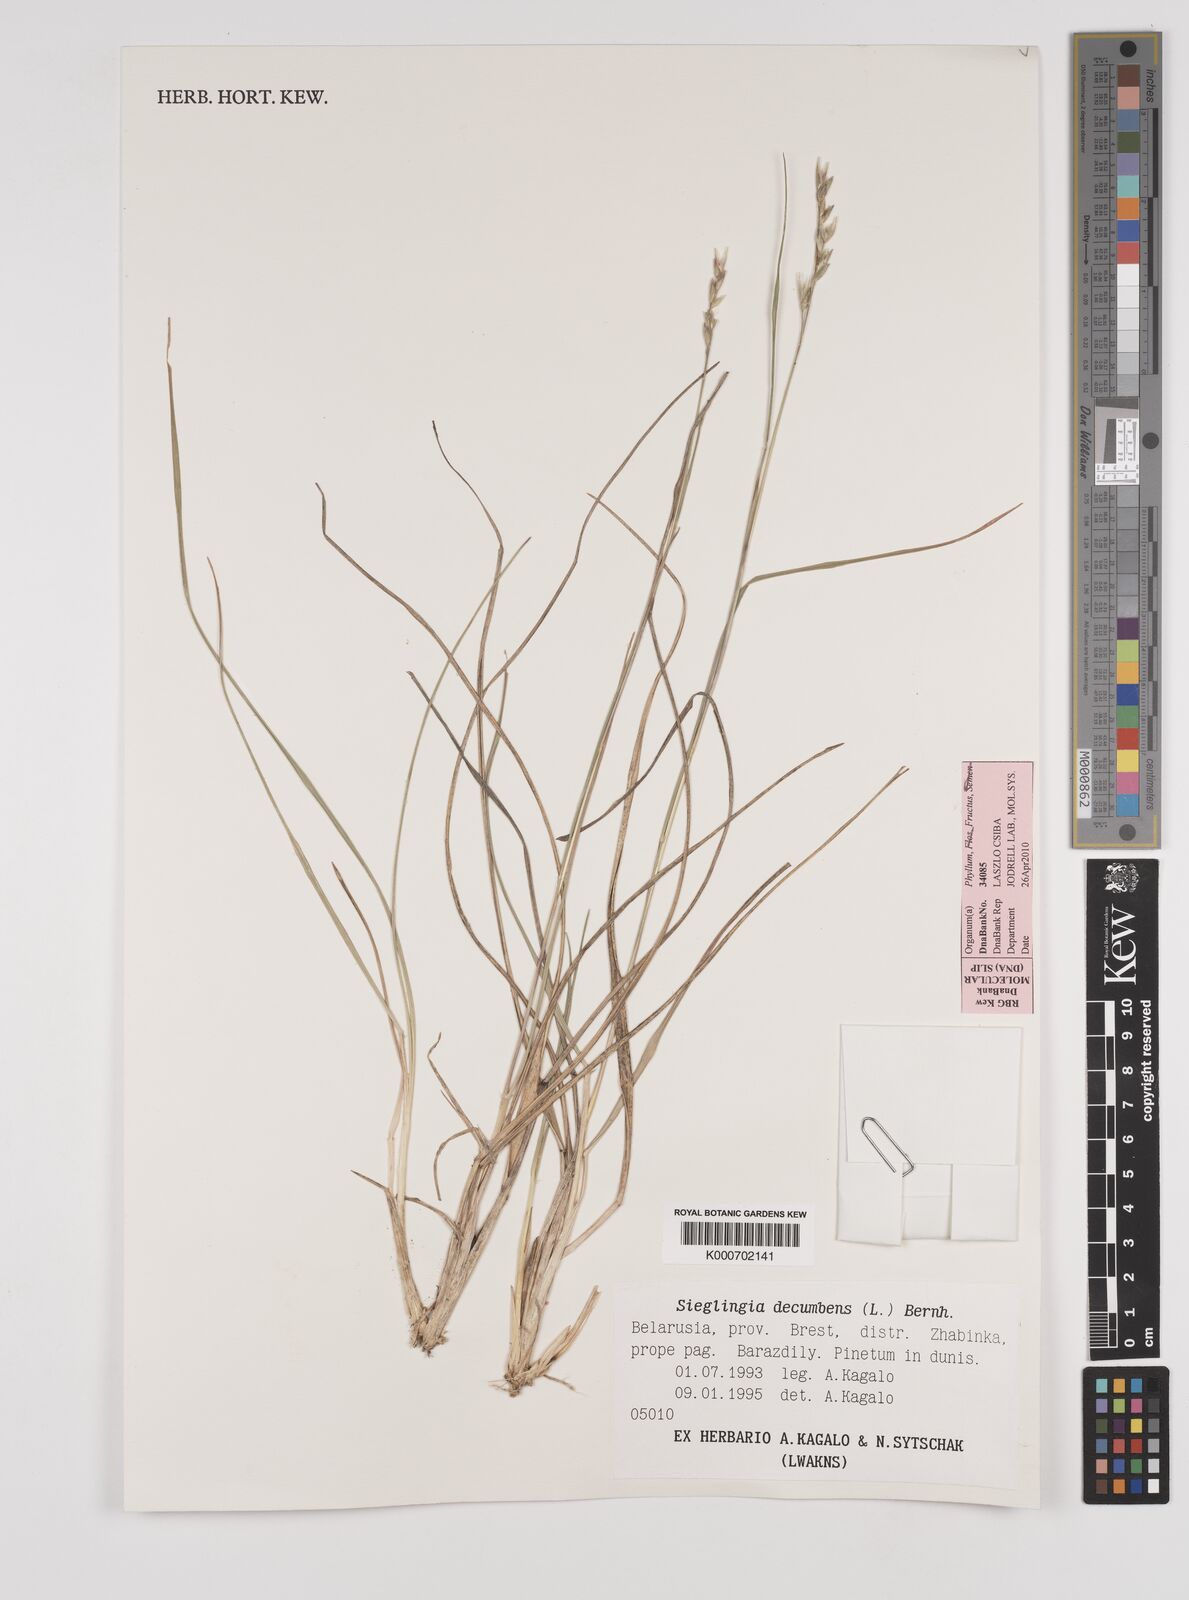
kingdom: Plantae
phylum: Tracheophyta
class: Liliopsida
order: Poales
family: Poaceae
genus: Danthonia
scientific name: Danthonia decumbens
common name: Common heathgrass
